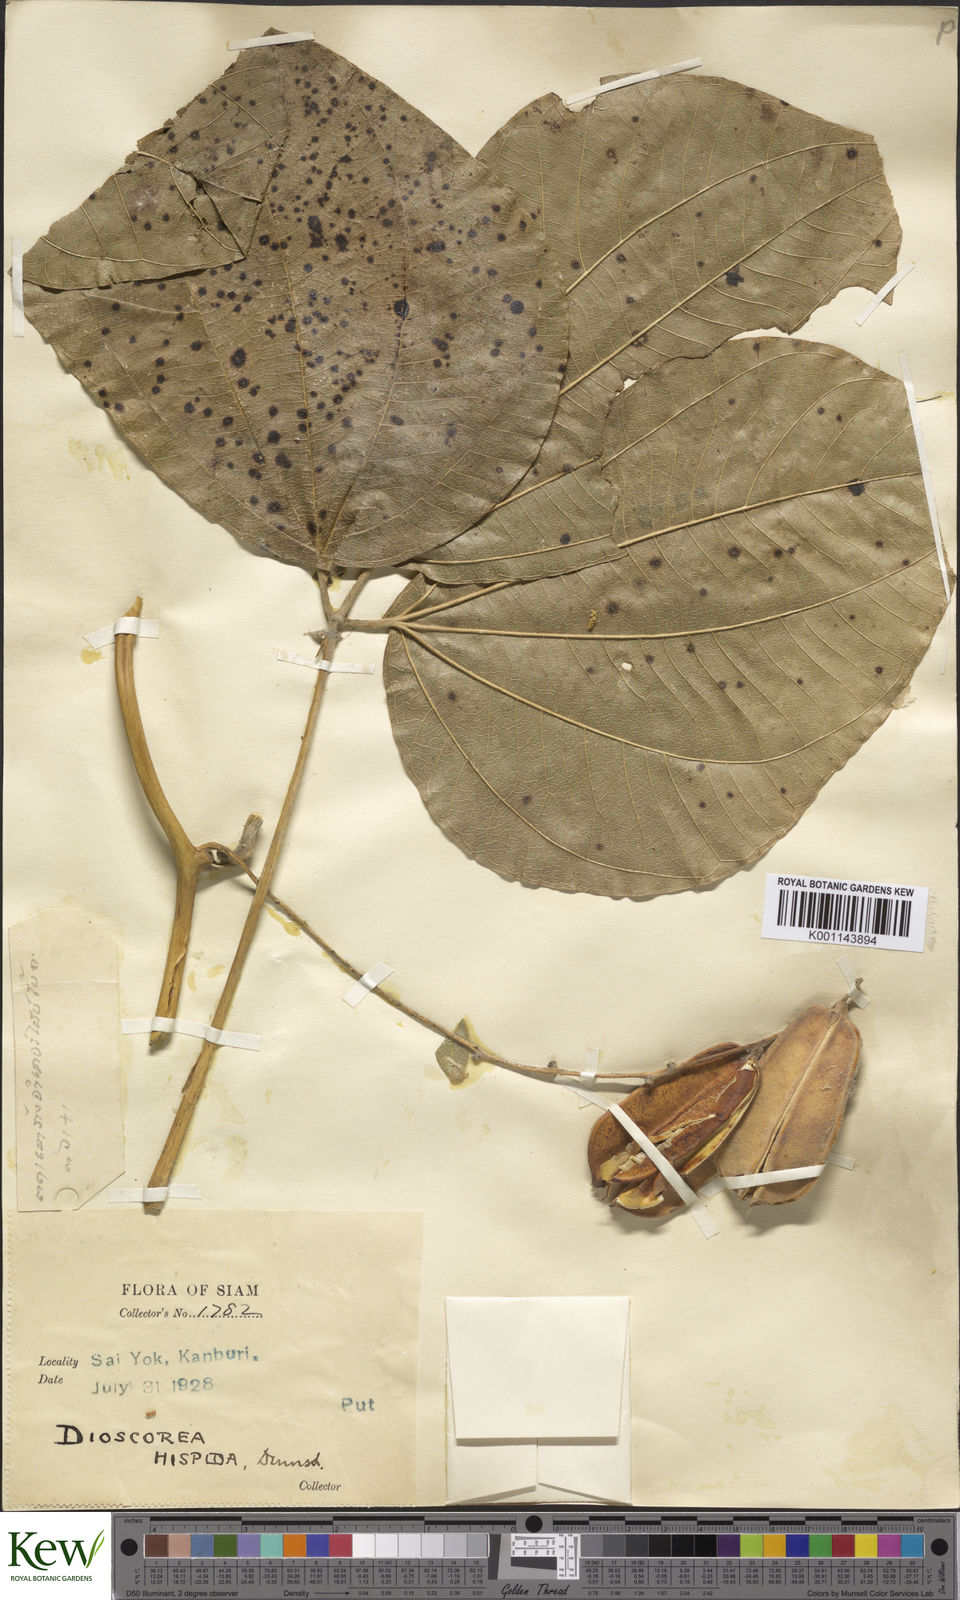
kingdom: Plantae
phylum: Tracheophyta
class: Liliopsida
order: Dioscoreales
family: Dioscoreaceae
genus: Dioscorea
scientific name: Dioscorea hispida
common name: Asiatic bitter yam
